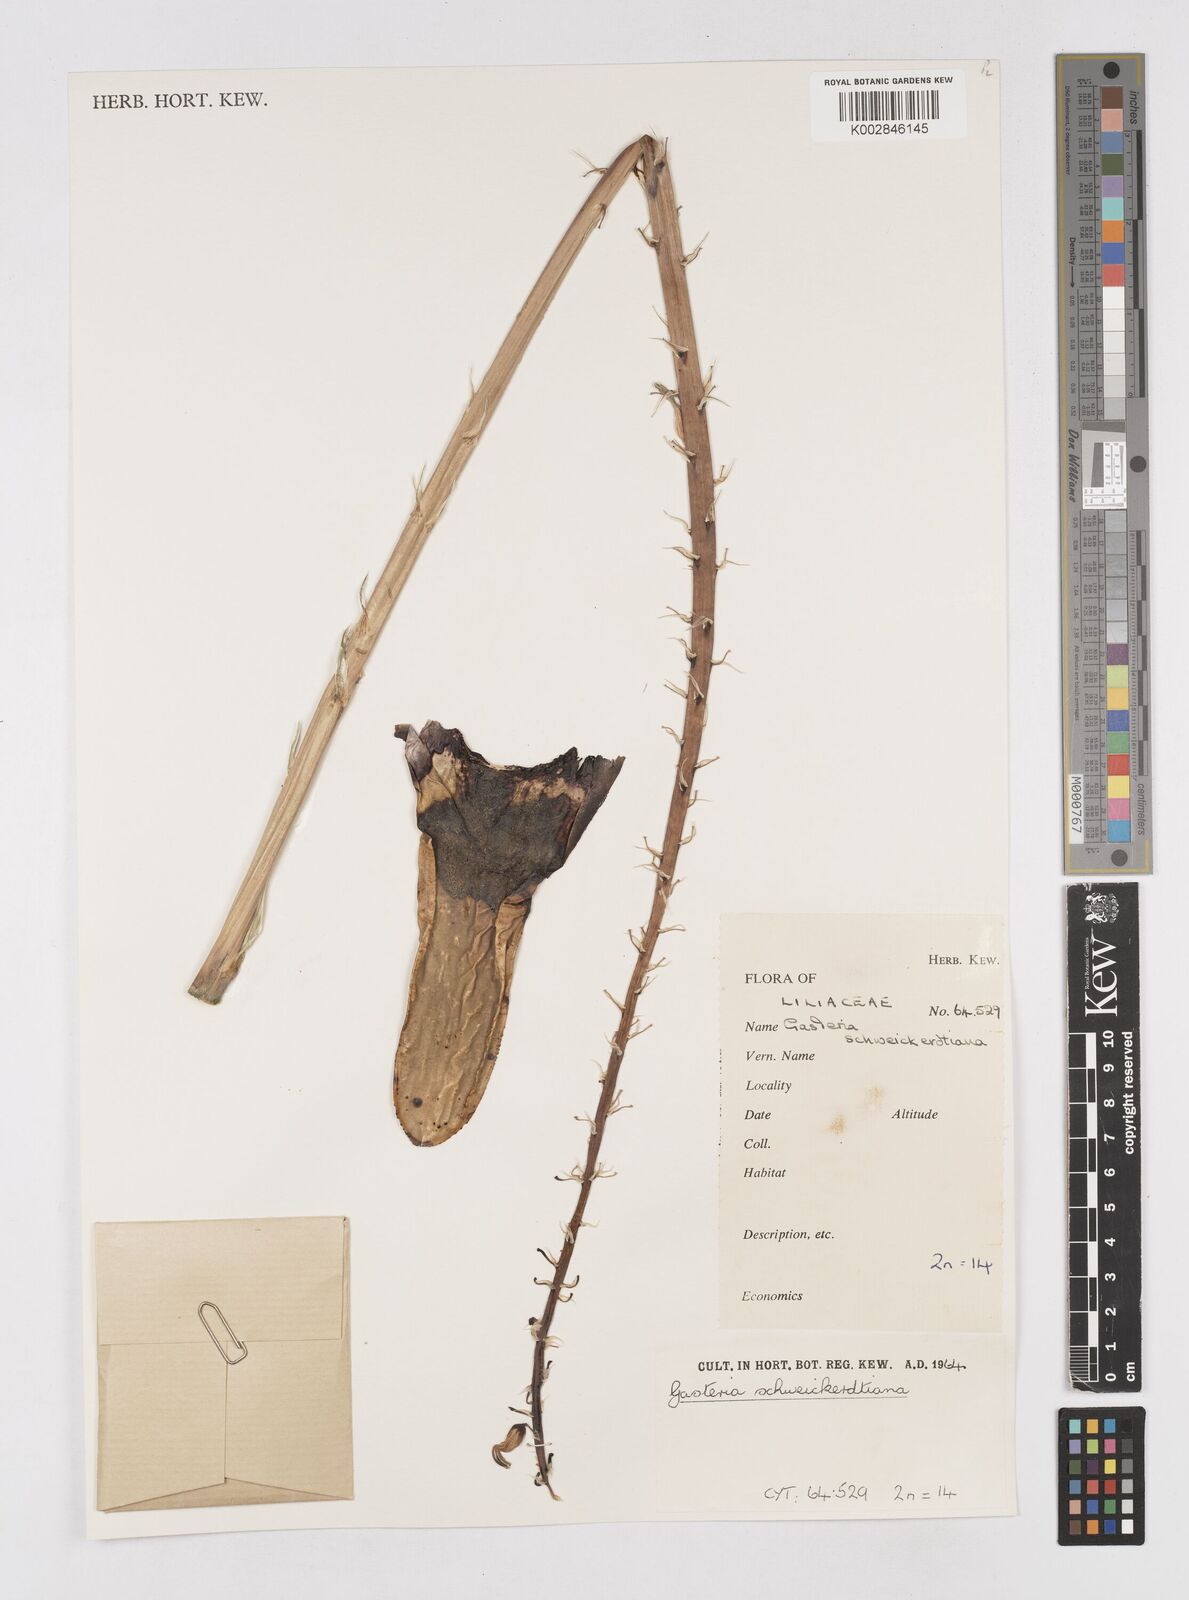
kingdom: Plantae
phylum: Tracheophyta
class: Liliopsida
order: Asparagales
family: Asphodelaceae
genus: Gasteria
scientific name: Gasteria
